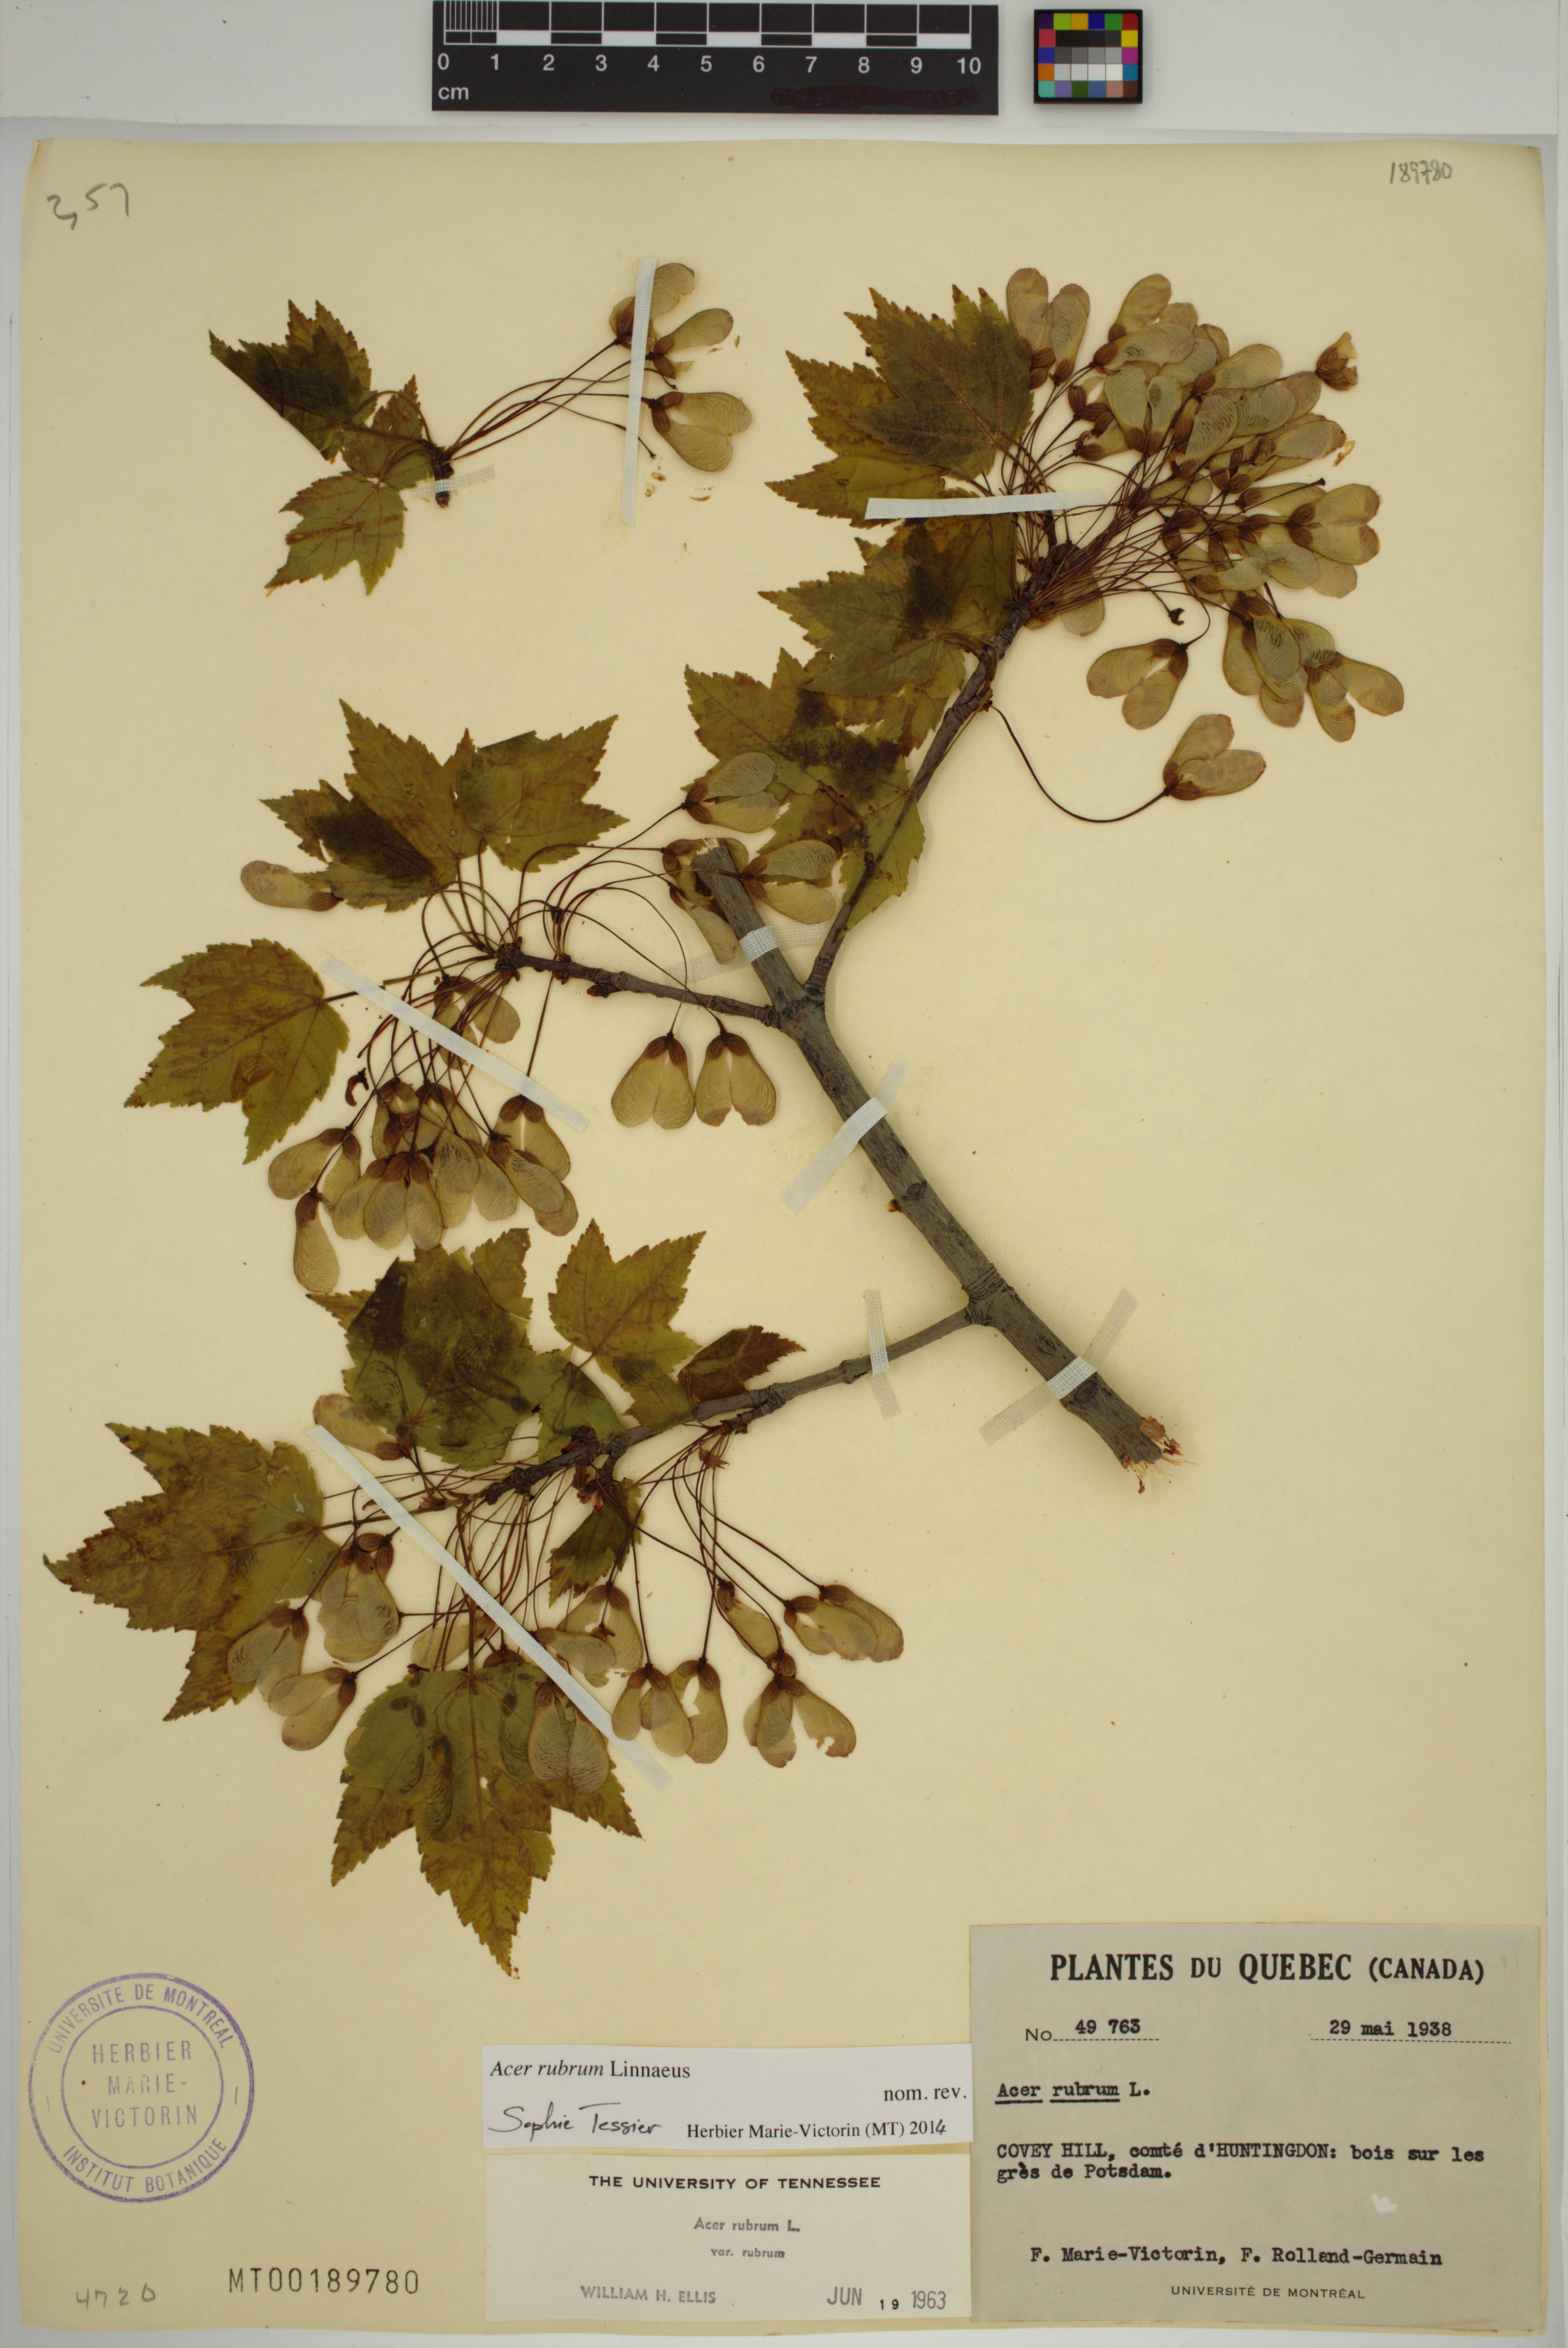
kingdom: Plantae
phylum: Tracheophyta
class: Magnoliopsida
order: Sapindales
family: Sapindaceae
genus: Acer
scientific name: Acer rubrum
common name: Red maple
